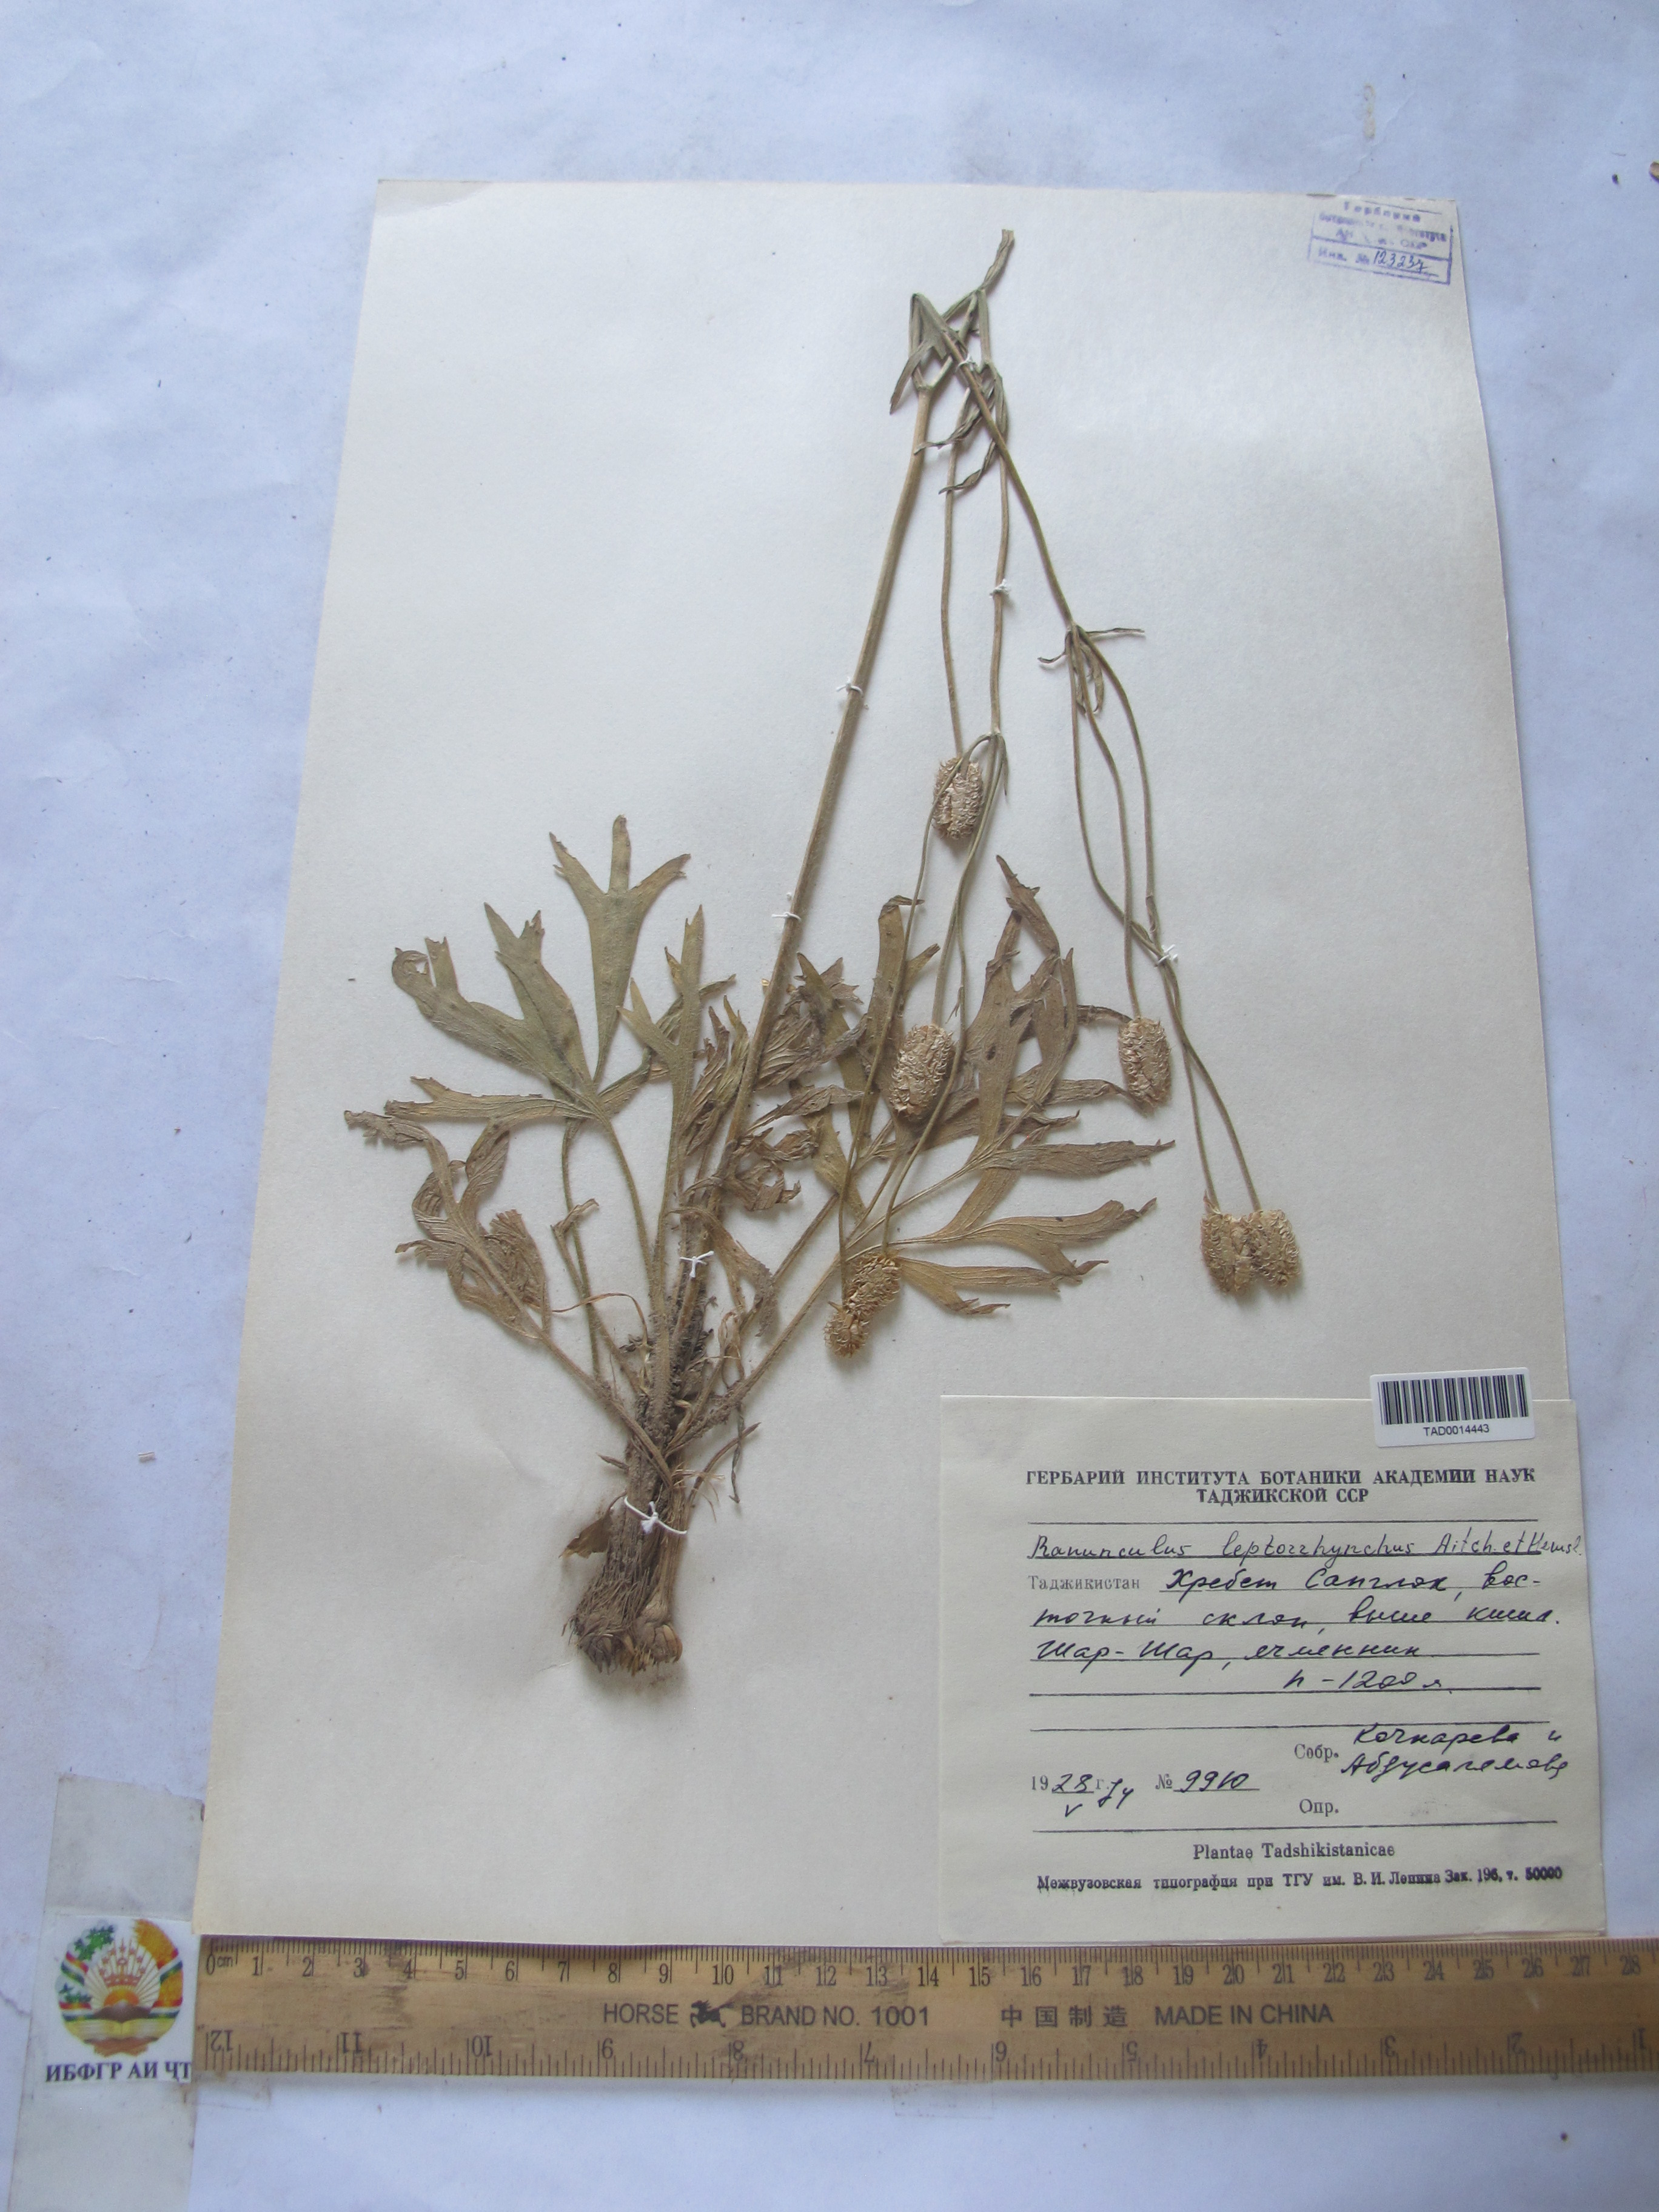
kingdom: Plantae
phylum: Tracheophyta
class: Magnoliopsida
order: Ranunculales
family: Ranunculaceae
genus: Ranunculus
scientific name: Ranunculus leptorrhynchus
